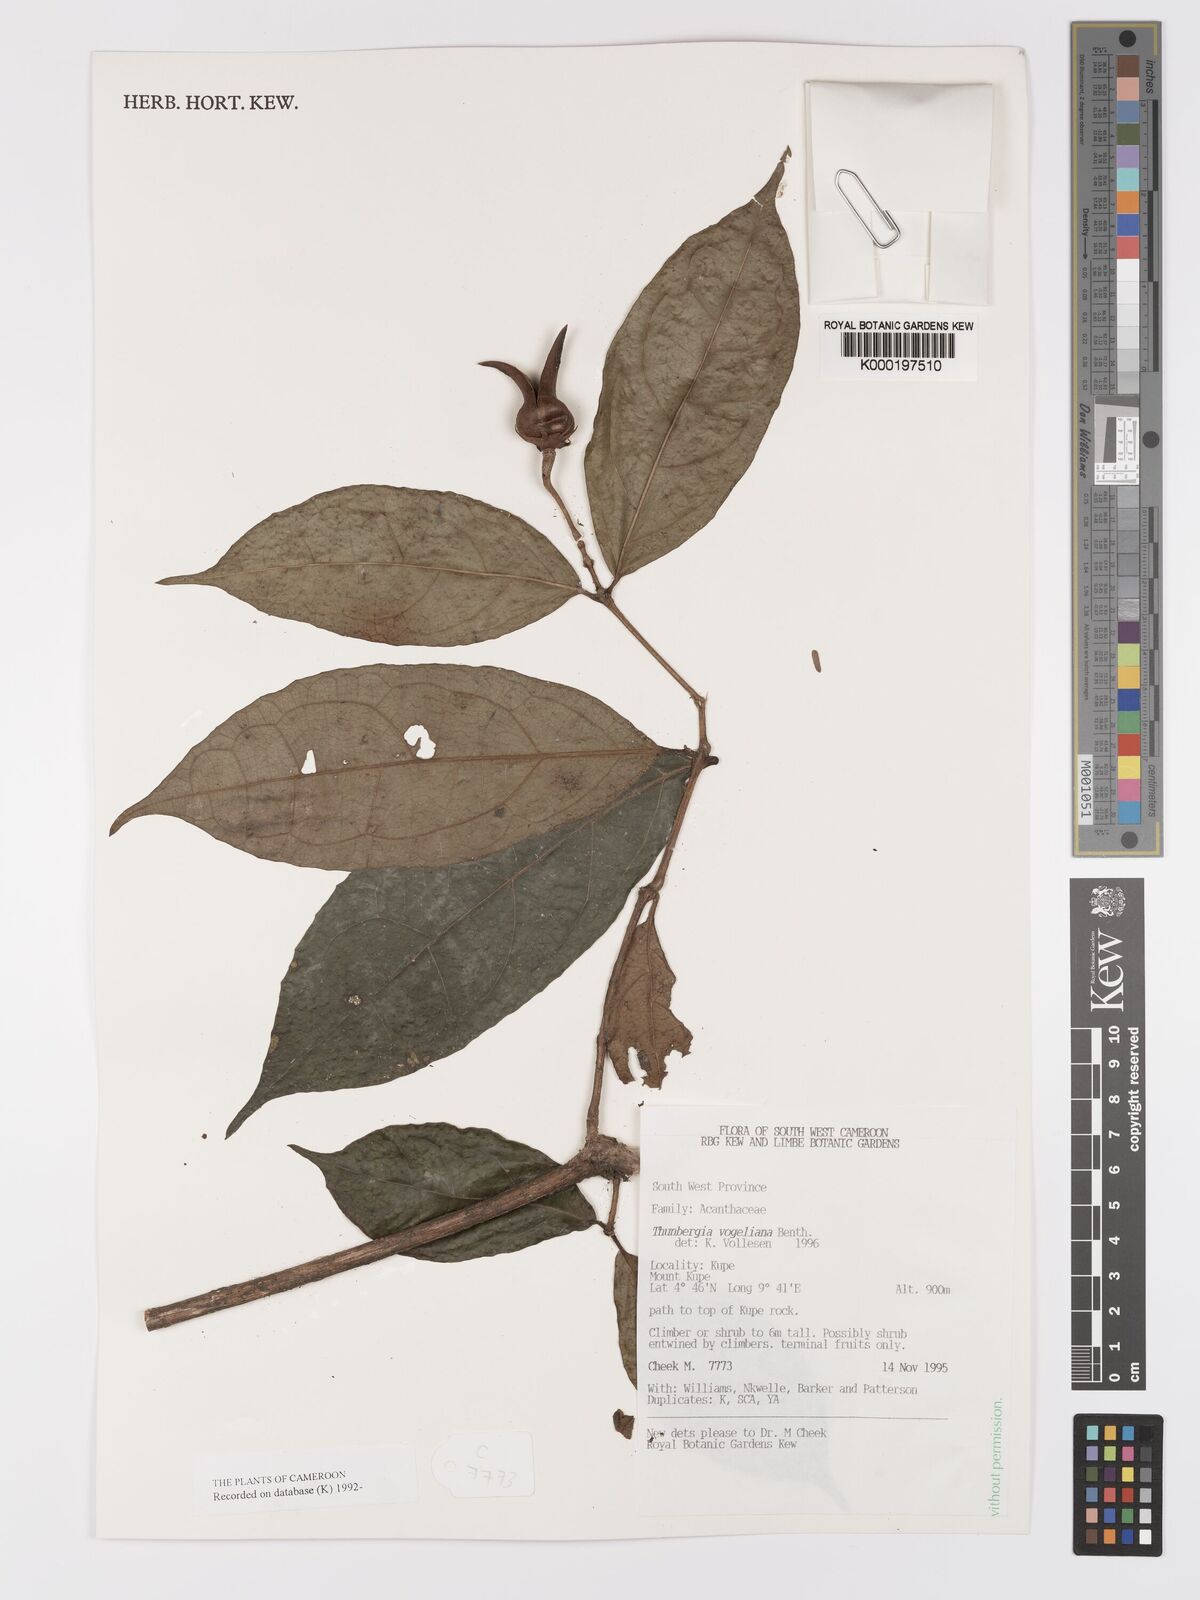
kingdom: Plantae
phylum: Tracheophyta
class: Magnoliopsida
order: Lamiales
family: Acanthaceae
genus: Thunbergia
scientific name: Thunbergia vogeliana
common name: Acanthaceae
